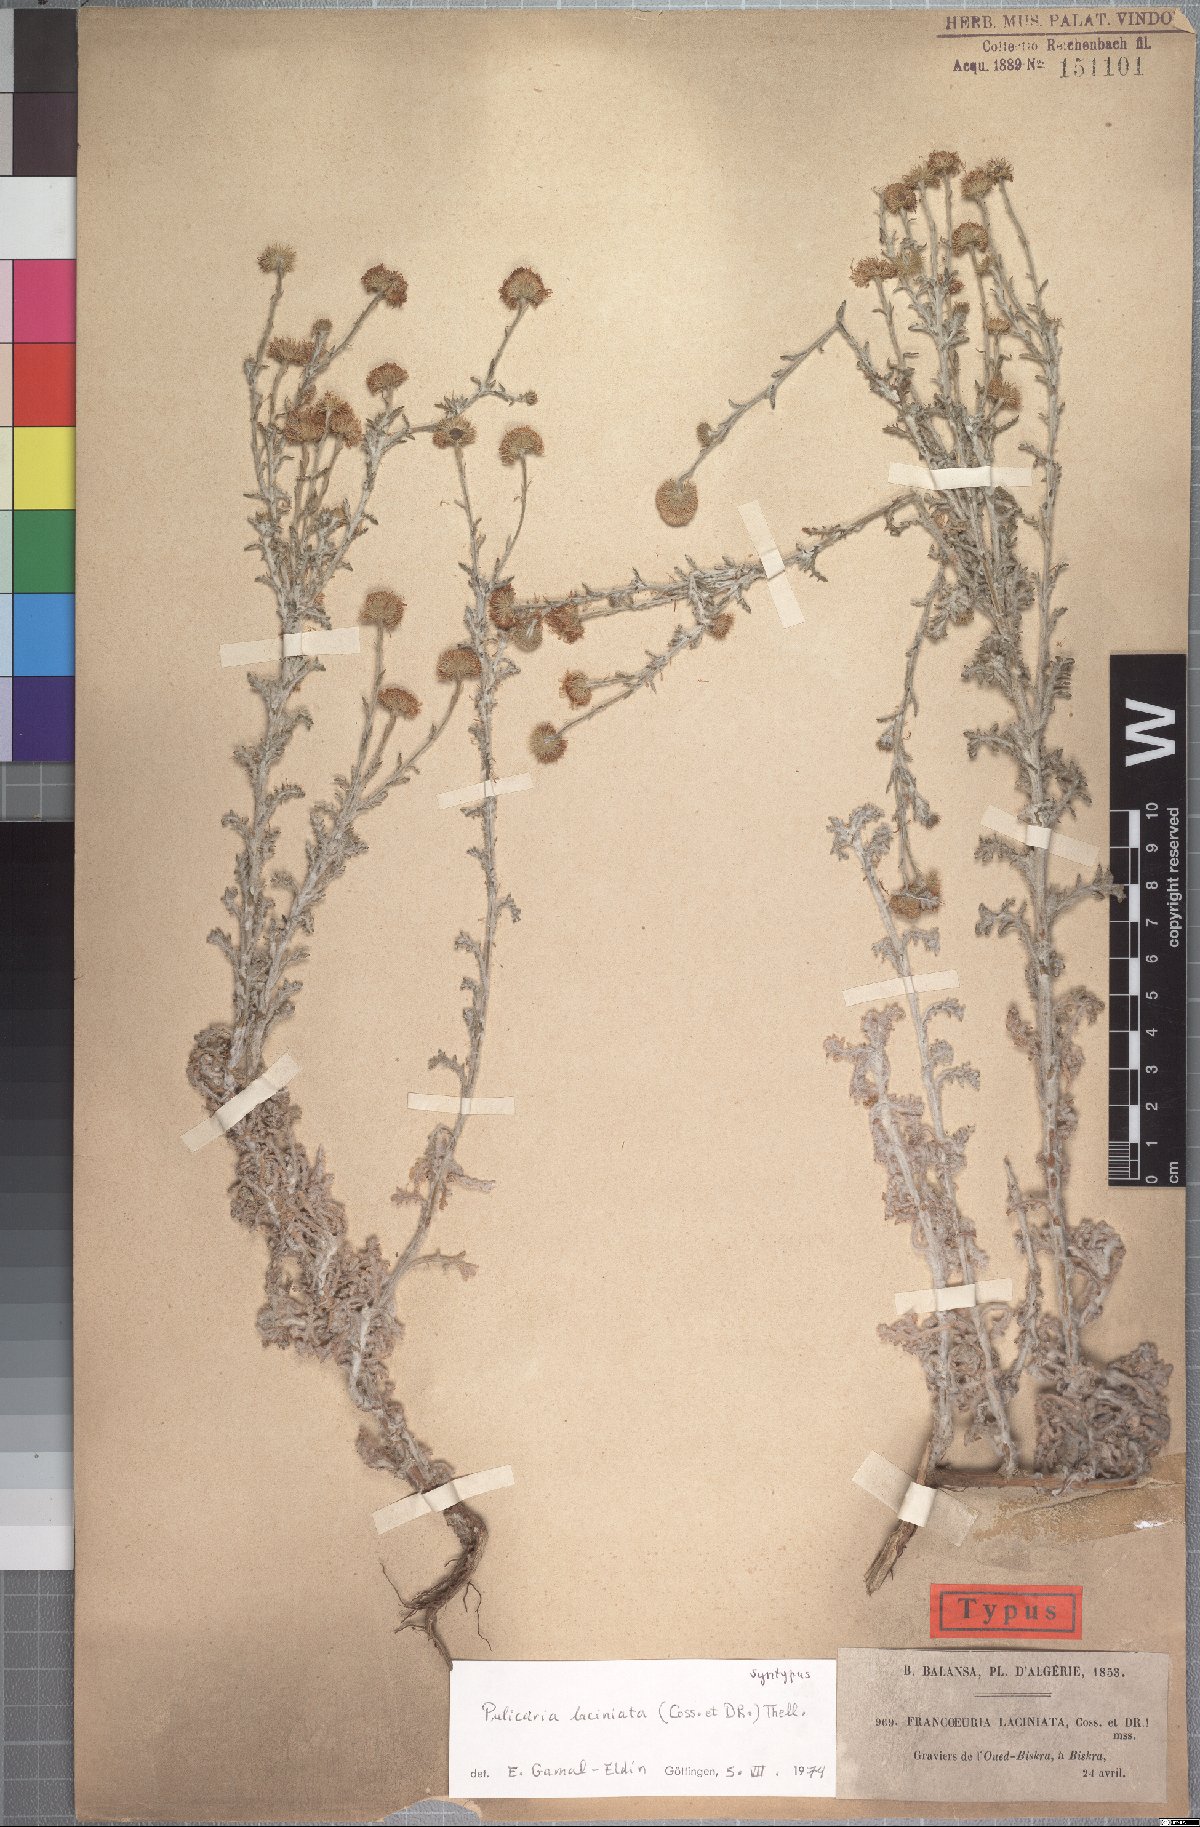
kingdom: Plantae
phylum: Tracheophyta
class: Magnoliopsida
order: Asterales
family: Asteraceae
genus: Pulicaria
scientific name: Pulicaria laciniata
